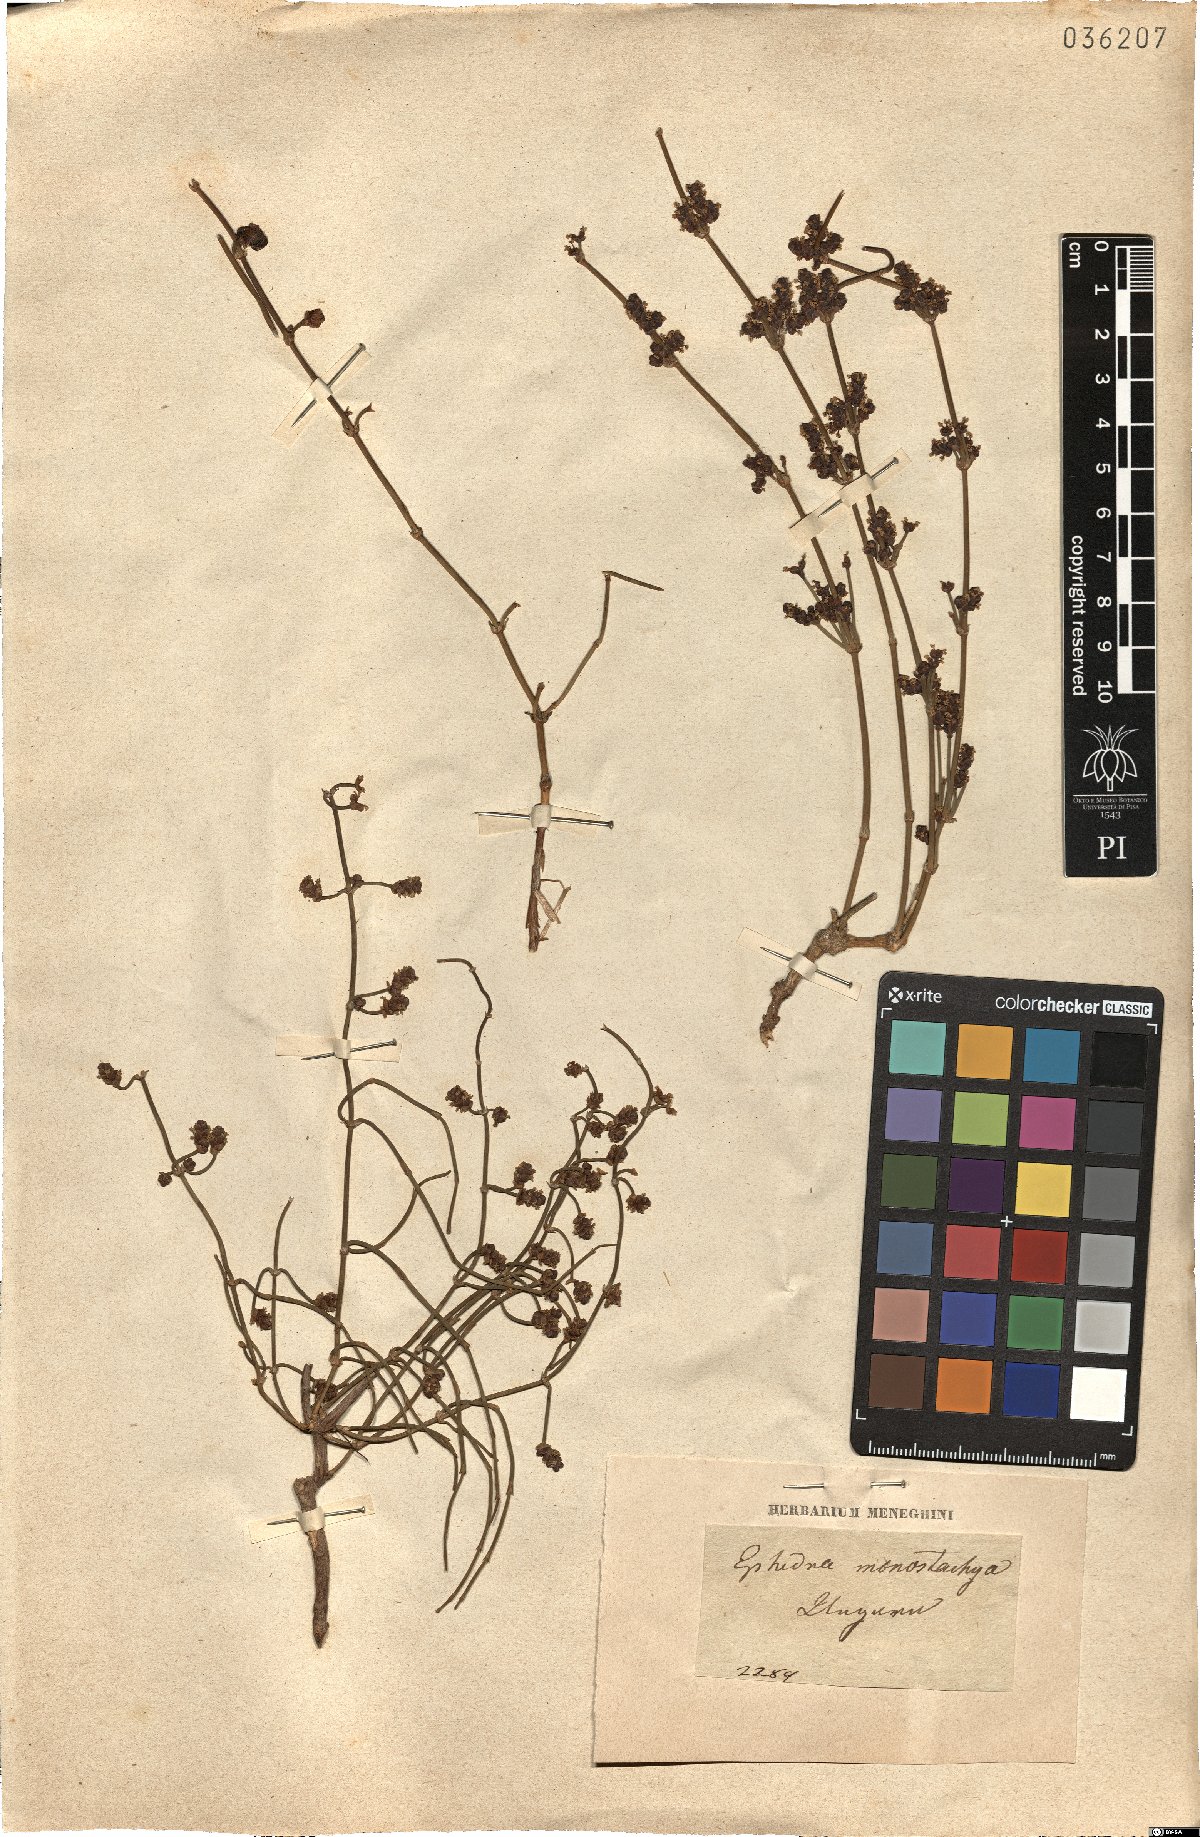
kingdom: Plantae
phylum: Tracheophyta
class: Gnetopsida
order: Ephedrales
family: Ephedraceae
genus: Ephedra
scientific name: Ephedra distachya
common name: Sea grape
